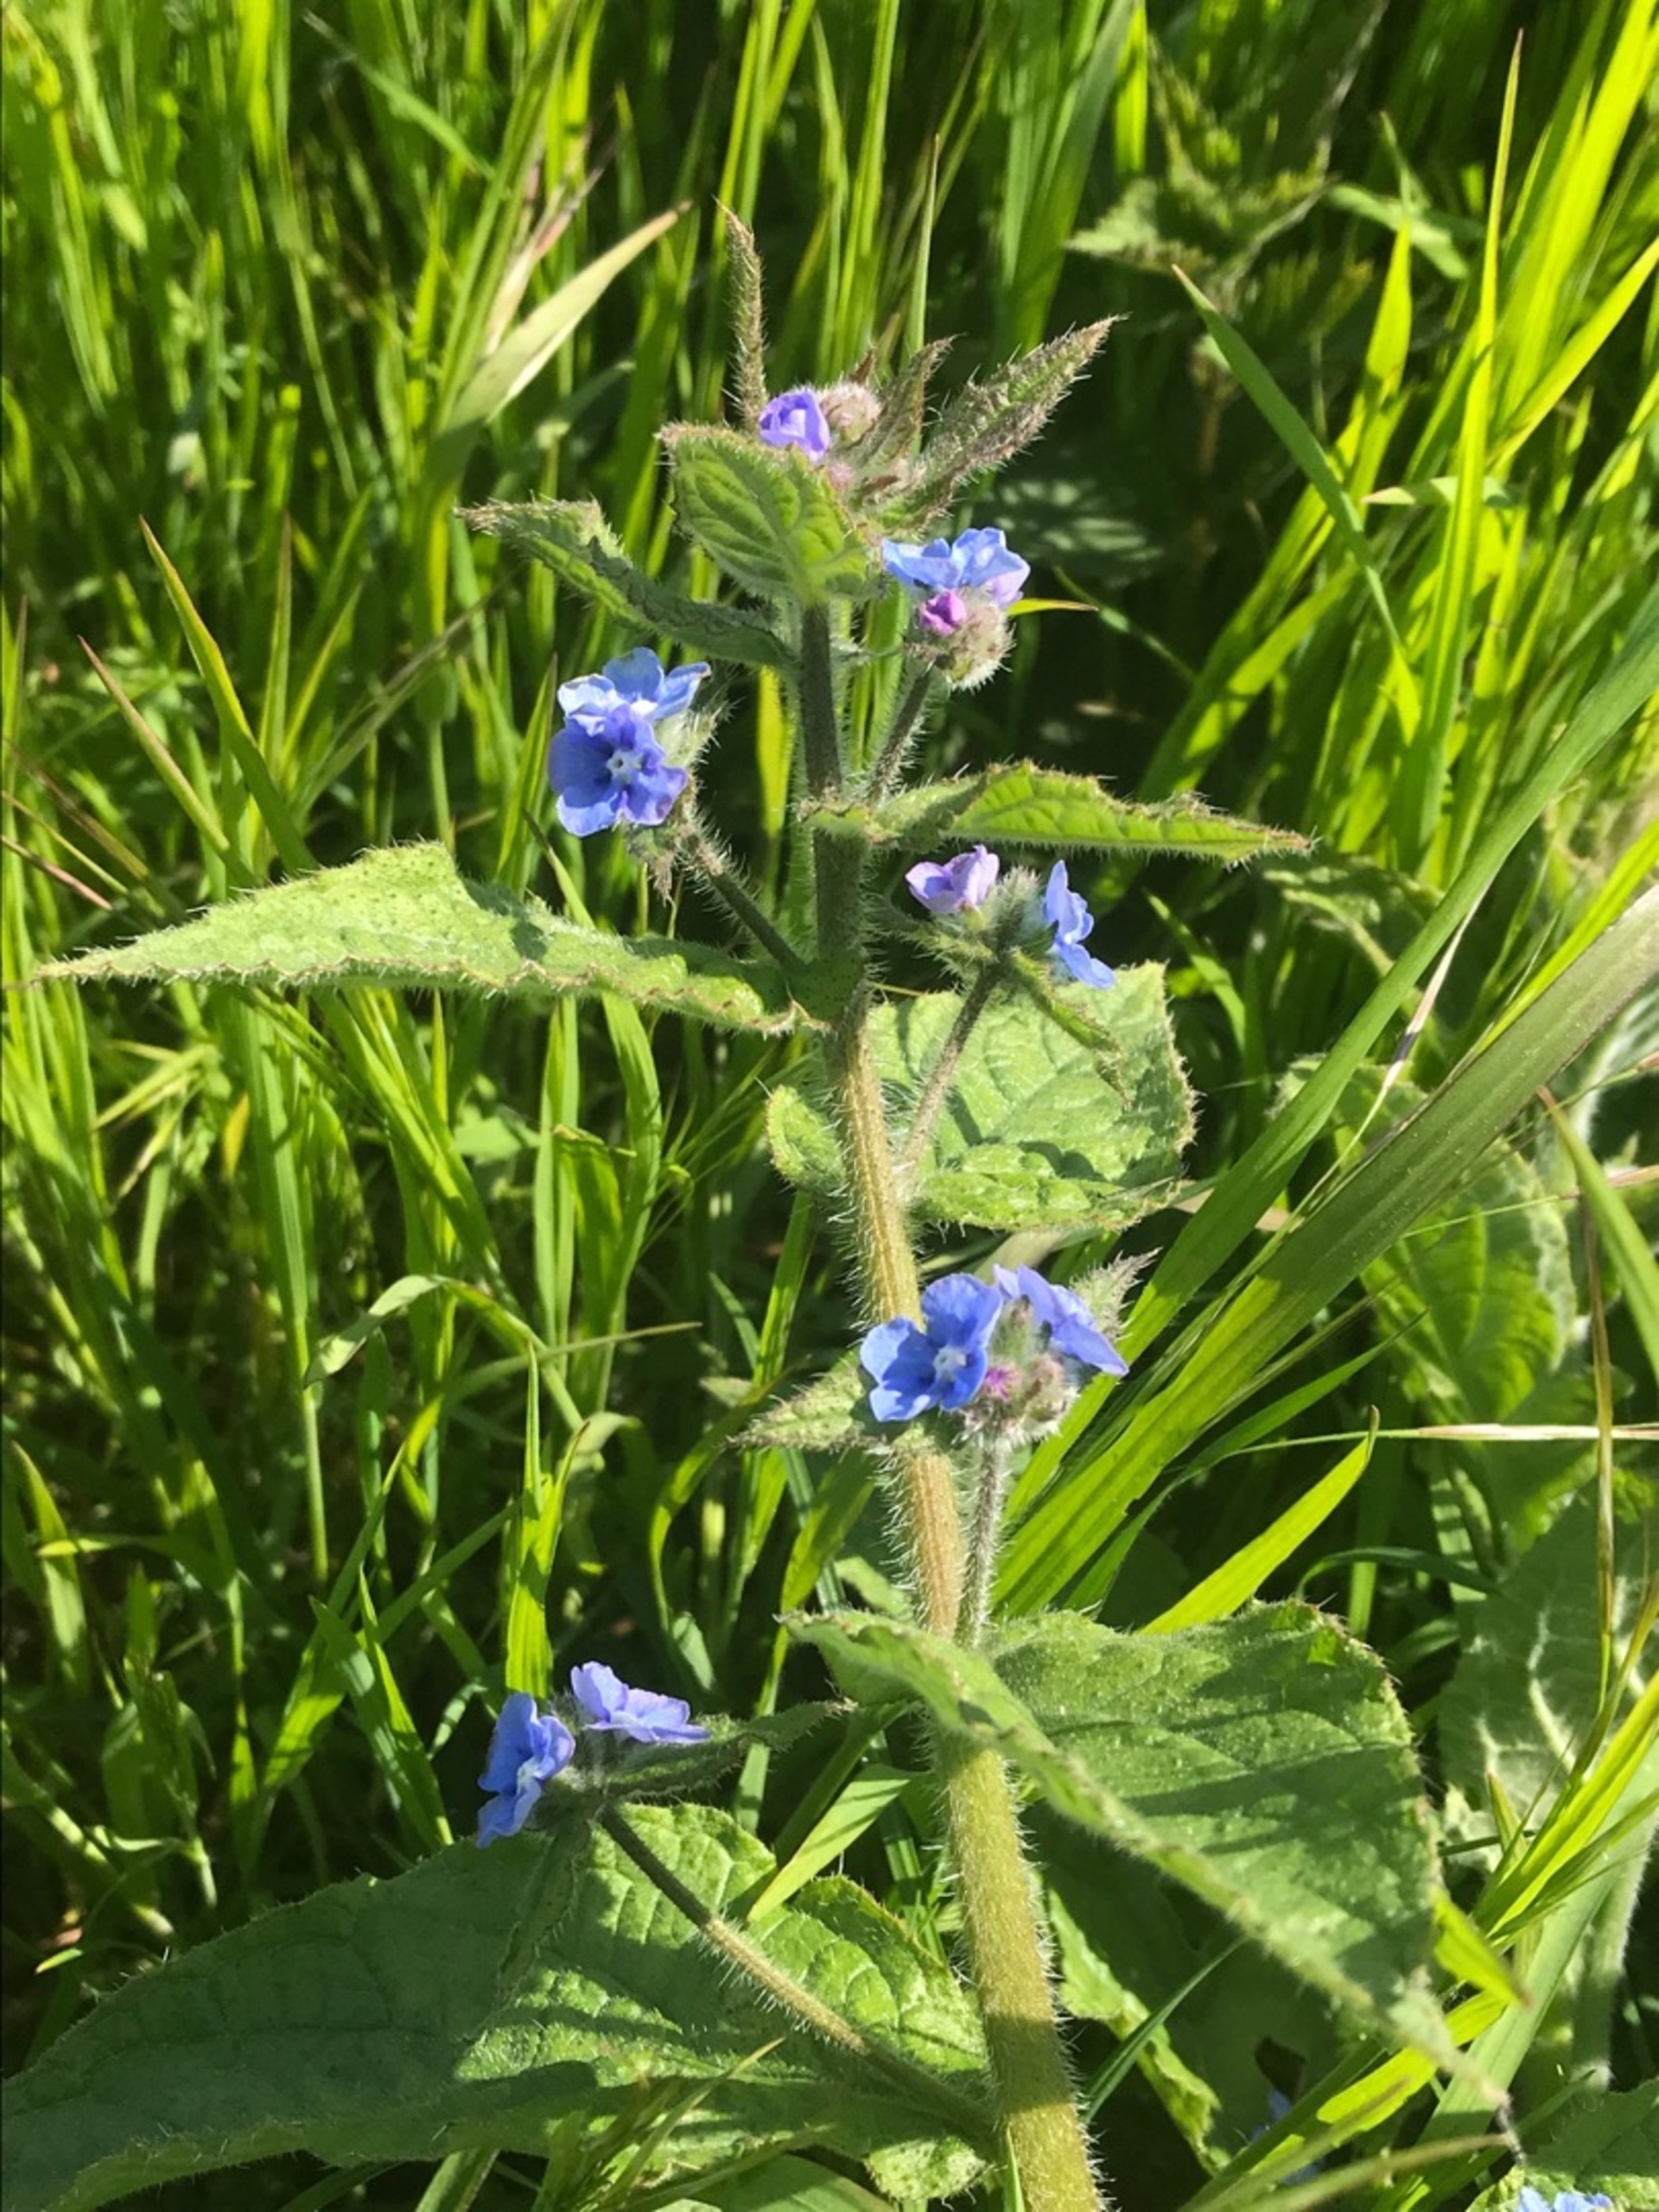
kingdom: Plantae
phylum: Tracheophyta
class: Magnoliopsida
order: Boraginales
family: Boraginaceae
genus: Pentaglottis
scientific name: Pentaglottis sempervirens
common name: Femtunge
